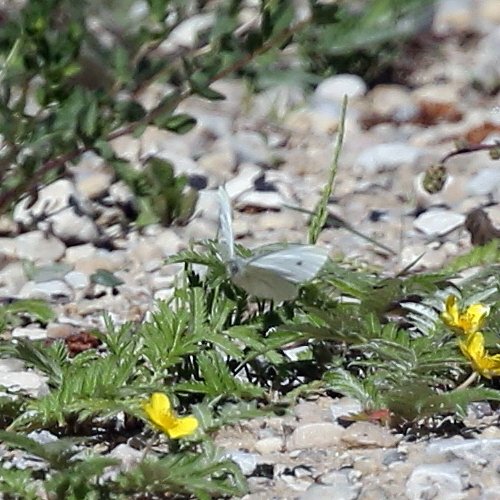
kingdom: Animalia
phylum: Arthropoda
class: Insecta
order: Lepidoptera
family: Pieridae
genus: Pieris
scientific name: Pieris rapae
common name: Cabbage White
